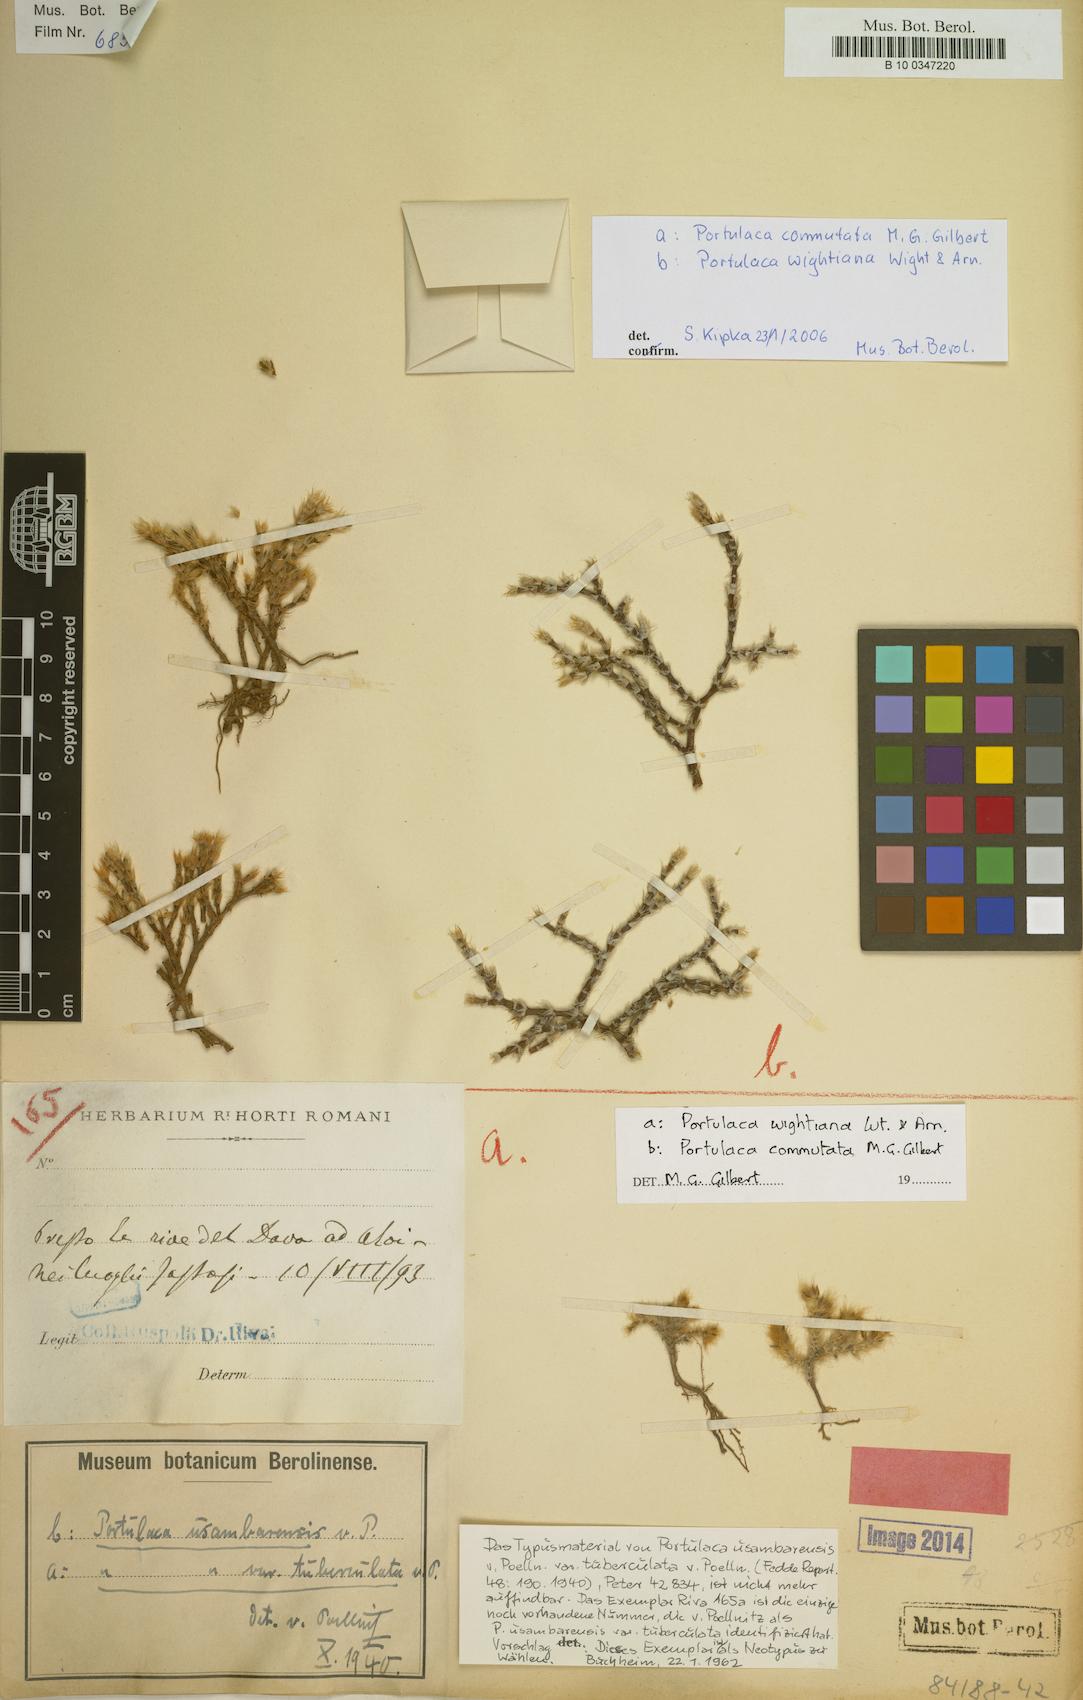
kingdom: Plantae
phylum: Tracheophyta
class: Magnoliopsida
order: Caryophyllales
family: Portulacaceae
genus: Portulaca
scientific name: Portulaca wightiana
